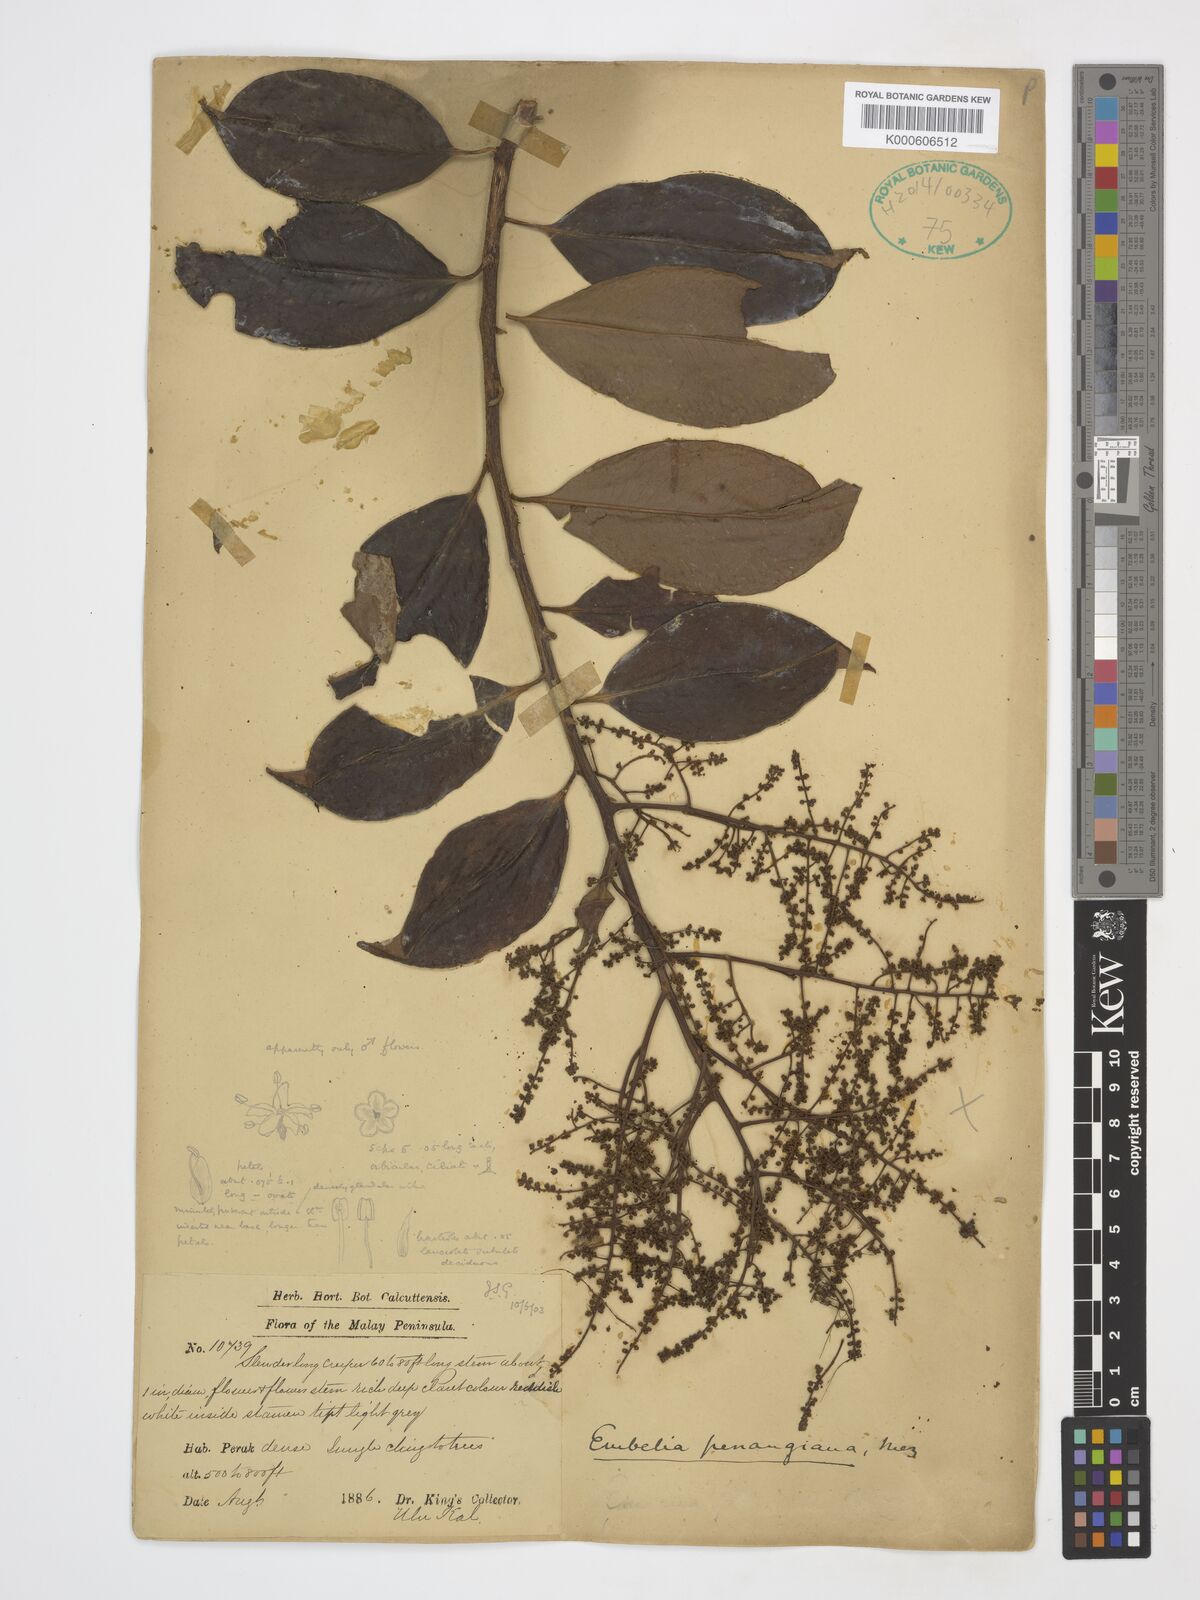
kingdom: Plantae
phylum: Tracheophyta
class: Magnoliopsida
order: Ericales
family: Primulaceae
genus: Embelia
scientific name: Embelia penangiana
